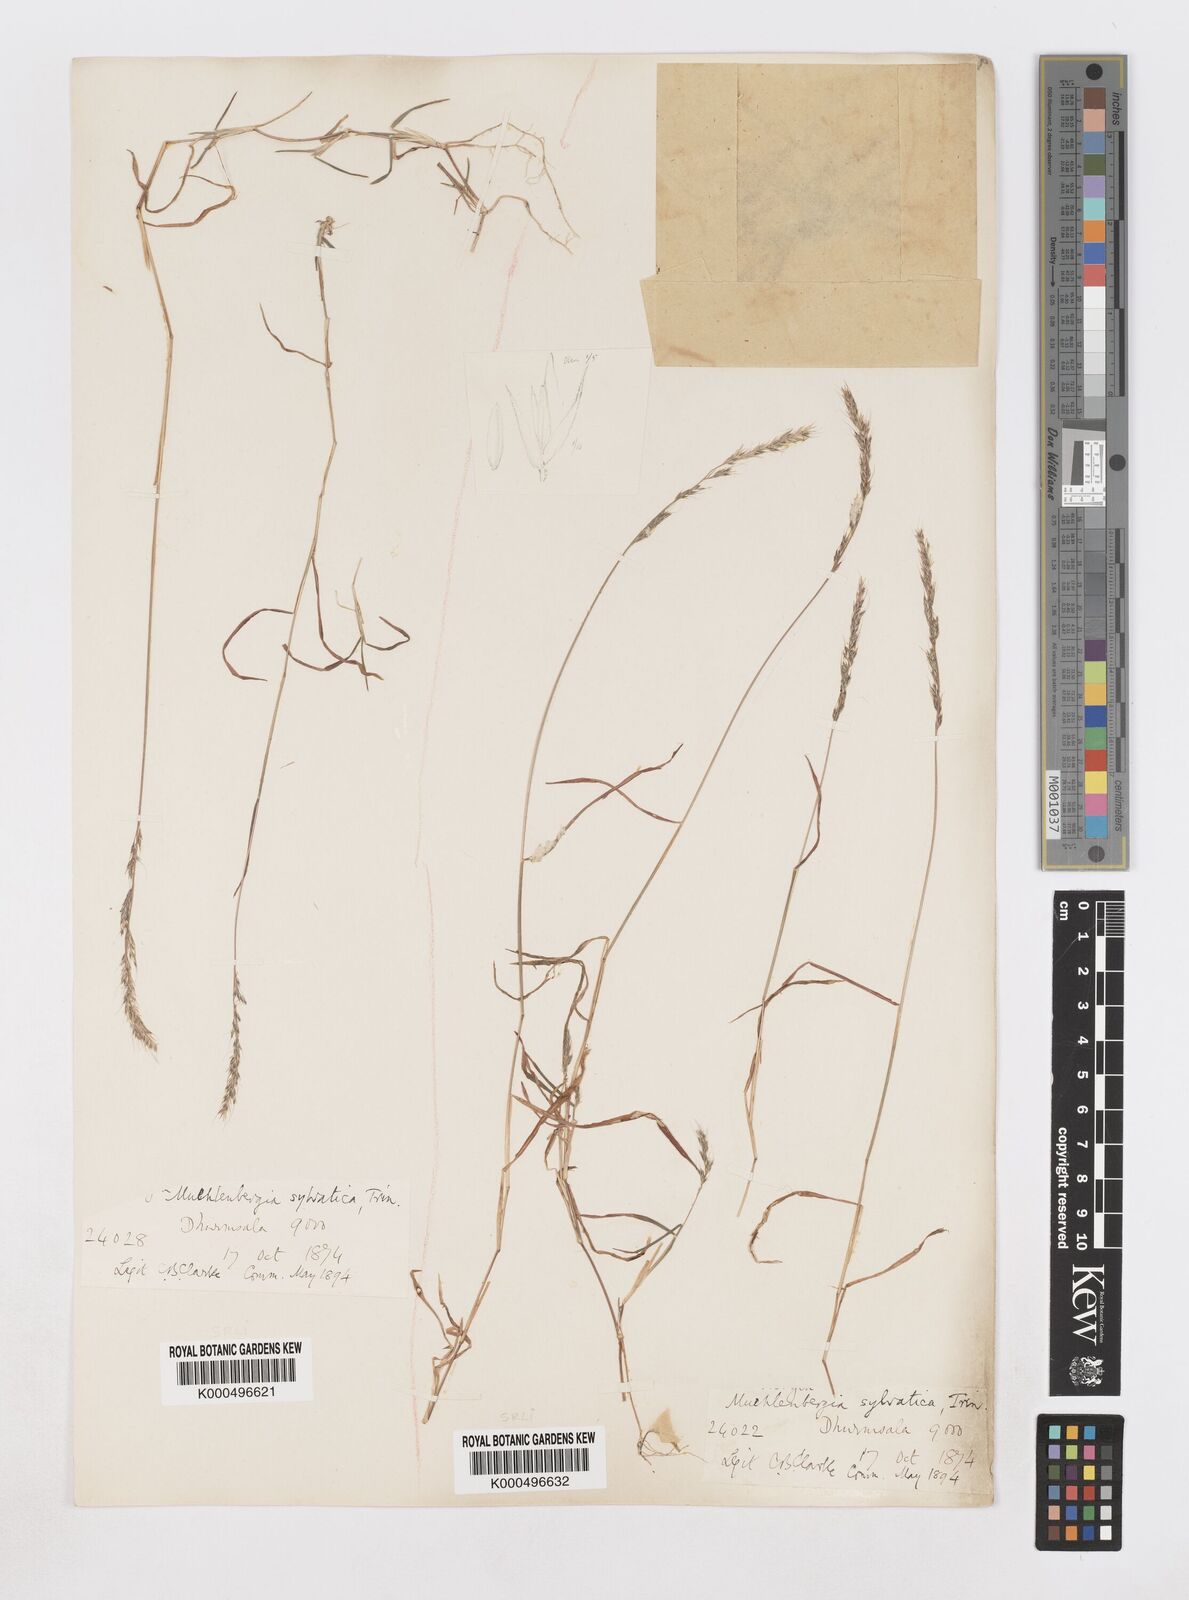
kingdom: Plantae
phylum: Tracheophyta
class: Liliopsida
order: Poales
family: Poaceae
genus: Muhlenbergia
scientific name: Muhlenbergia duthieana
